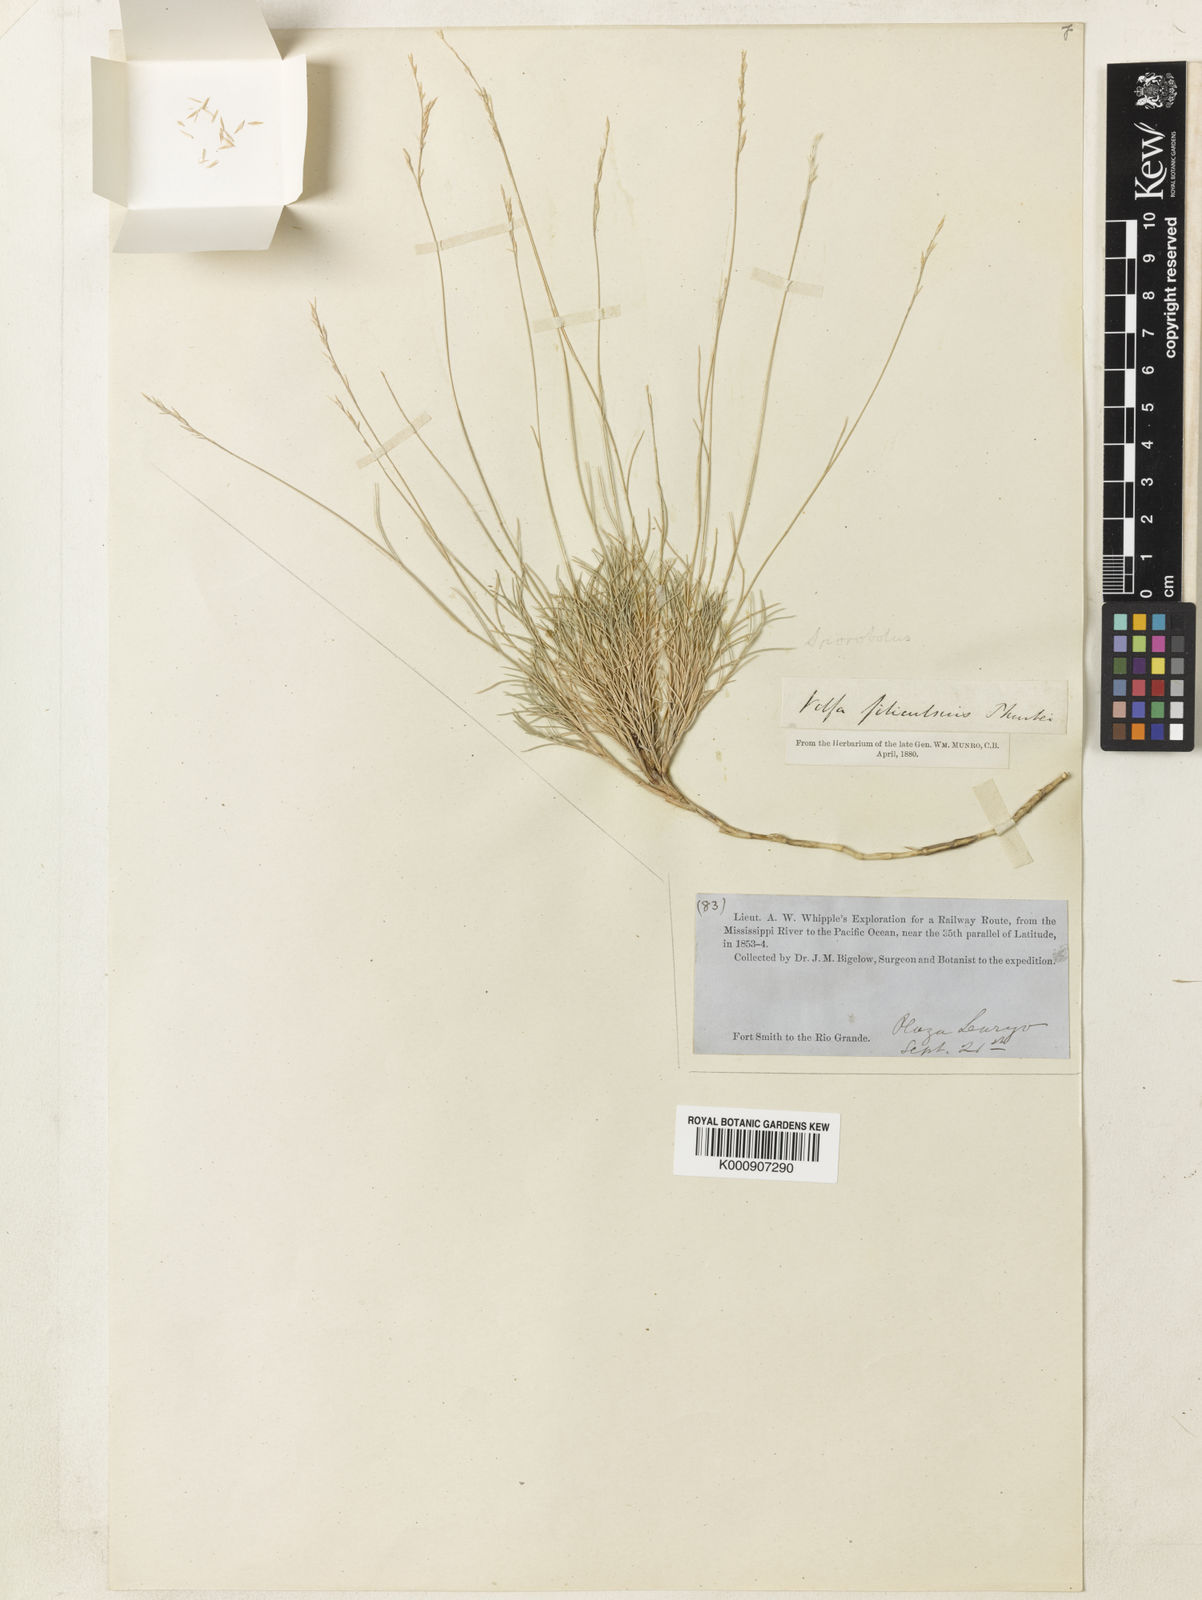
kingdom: Plantae
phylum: Tracheophyta
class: Liliopsida
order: Poales
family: Poaceae
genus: Muhlenbergia
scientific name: Muhlenbergia thurberi
